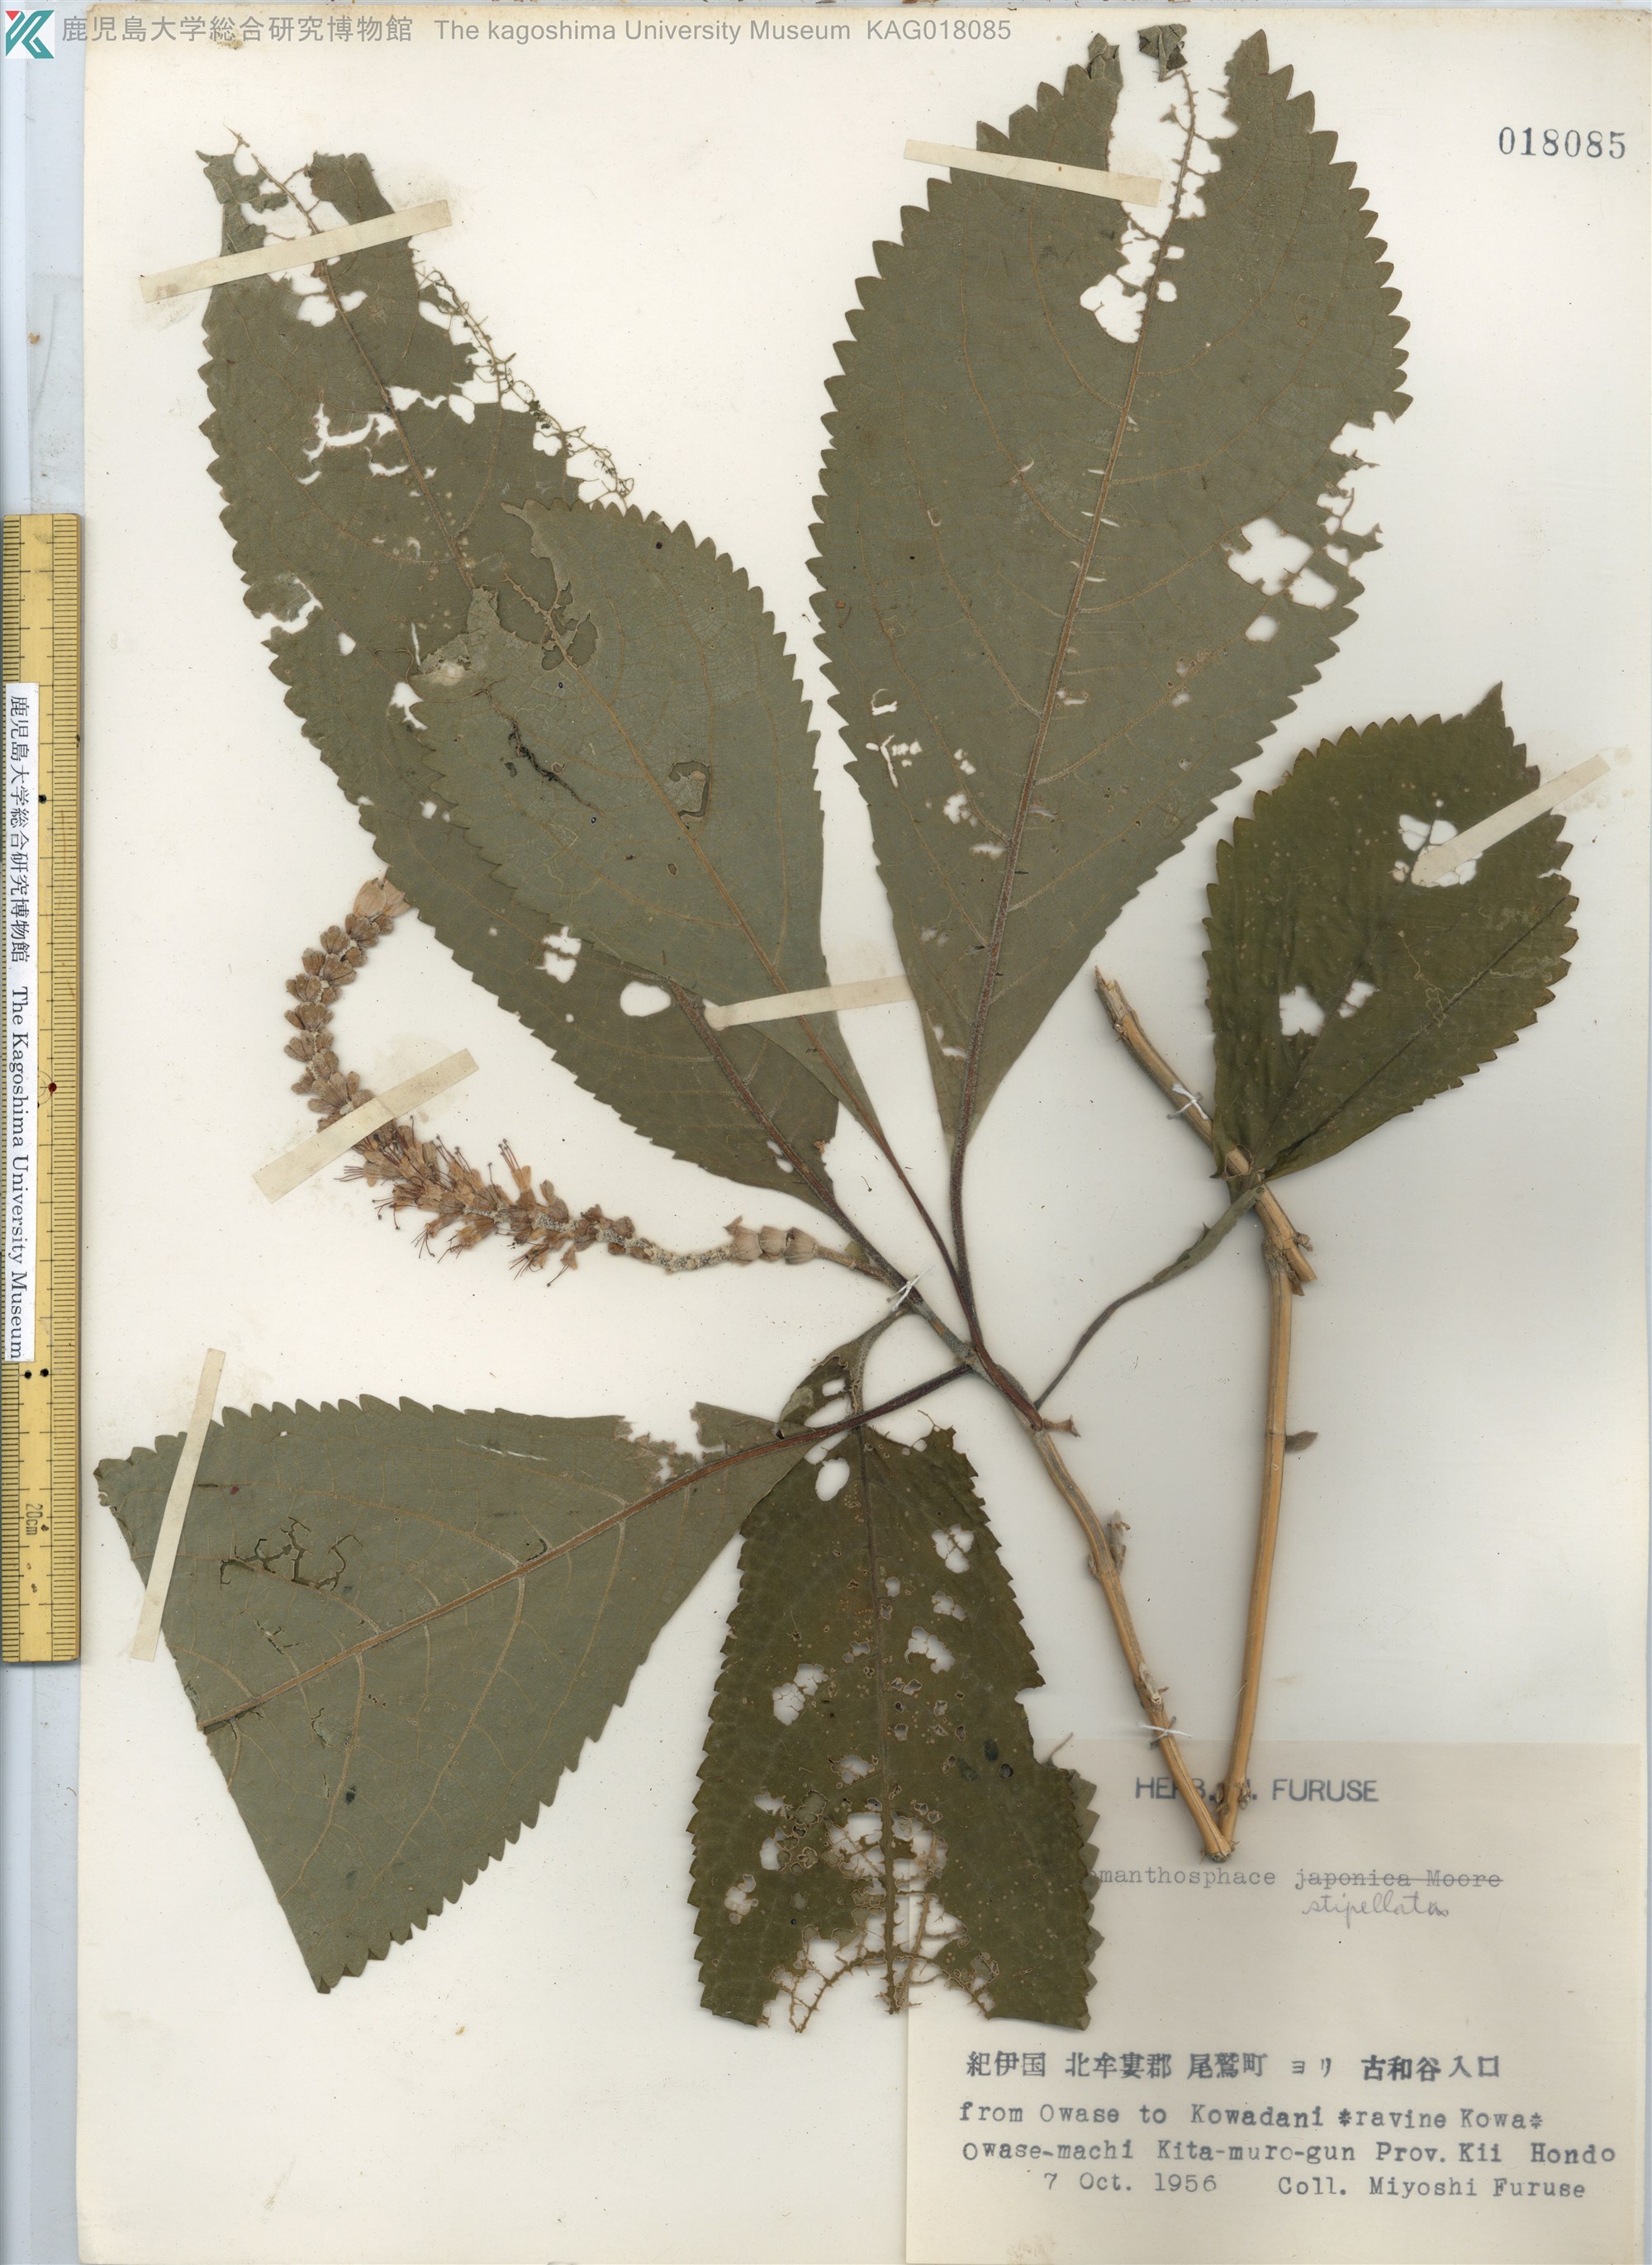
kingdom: Plantae
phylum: Tracheophyta
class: Magnoliopsida
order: Lamiales
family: Lamiaceae
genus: Comanthosphace
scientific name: Comanthosphace stellipila
